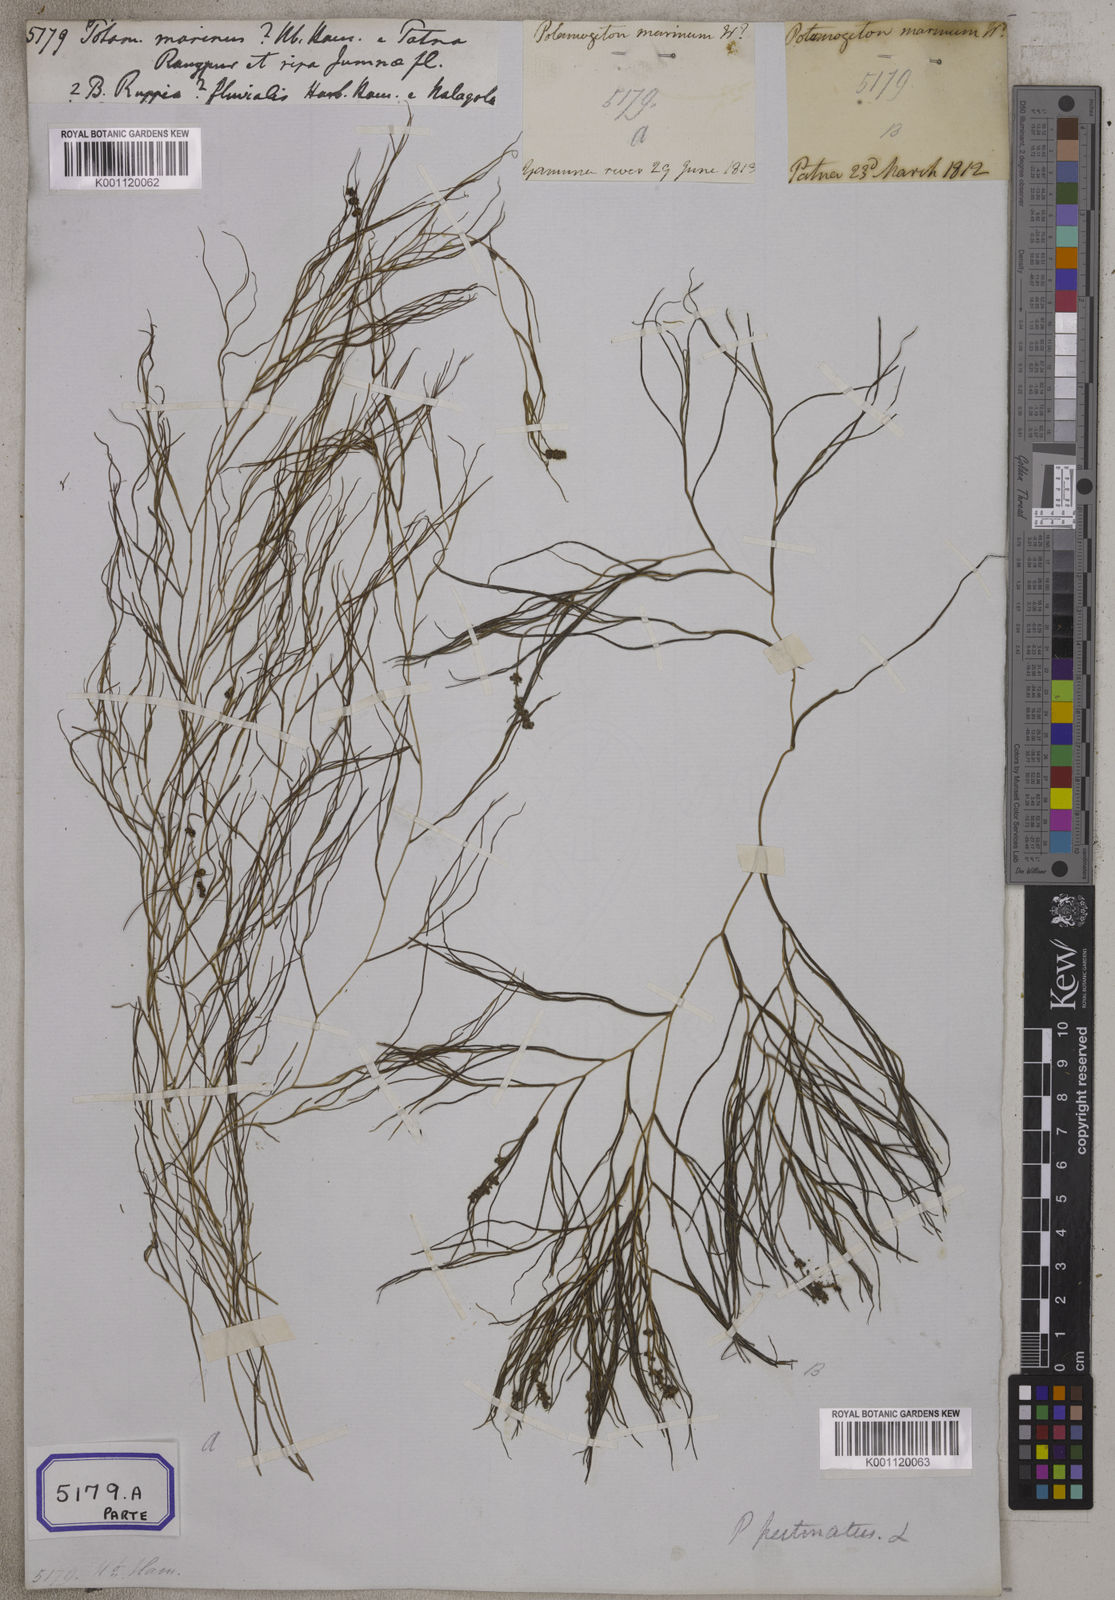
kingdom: Plantae
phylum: Tracheophyta
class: Liliopsida
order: Alismatales
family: Potamogetonaceae
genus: Stuckenia
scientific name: Stuckenia pectinata
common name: Sago pondweed
